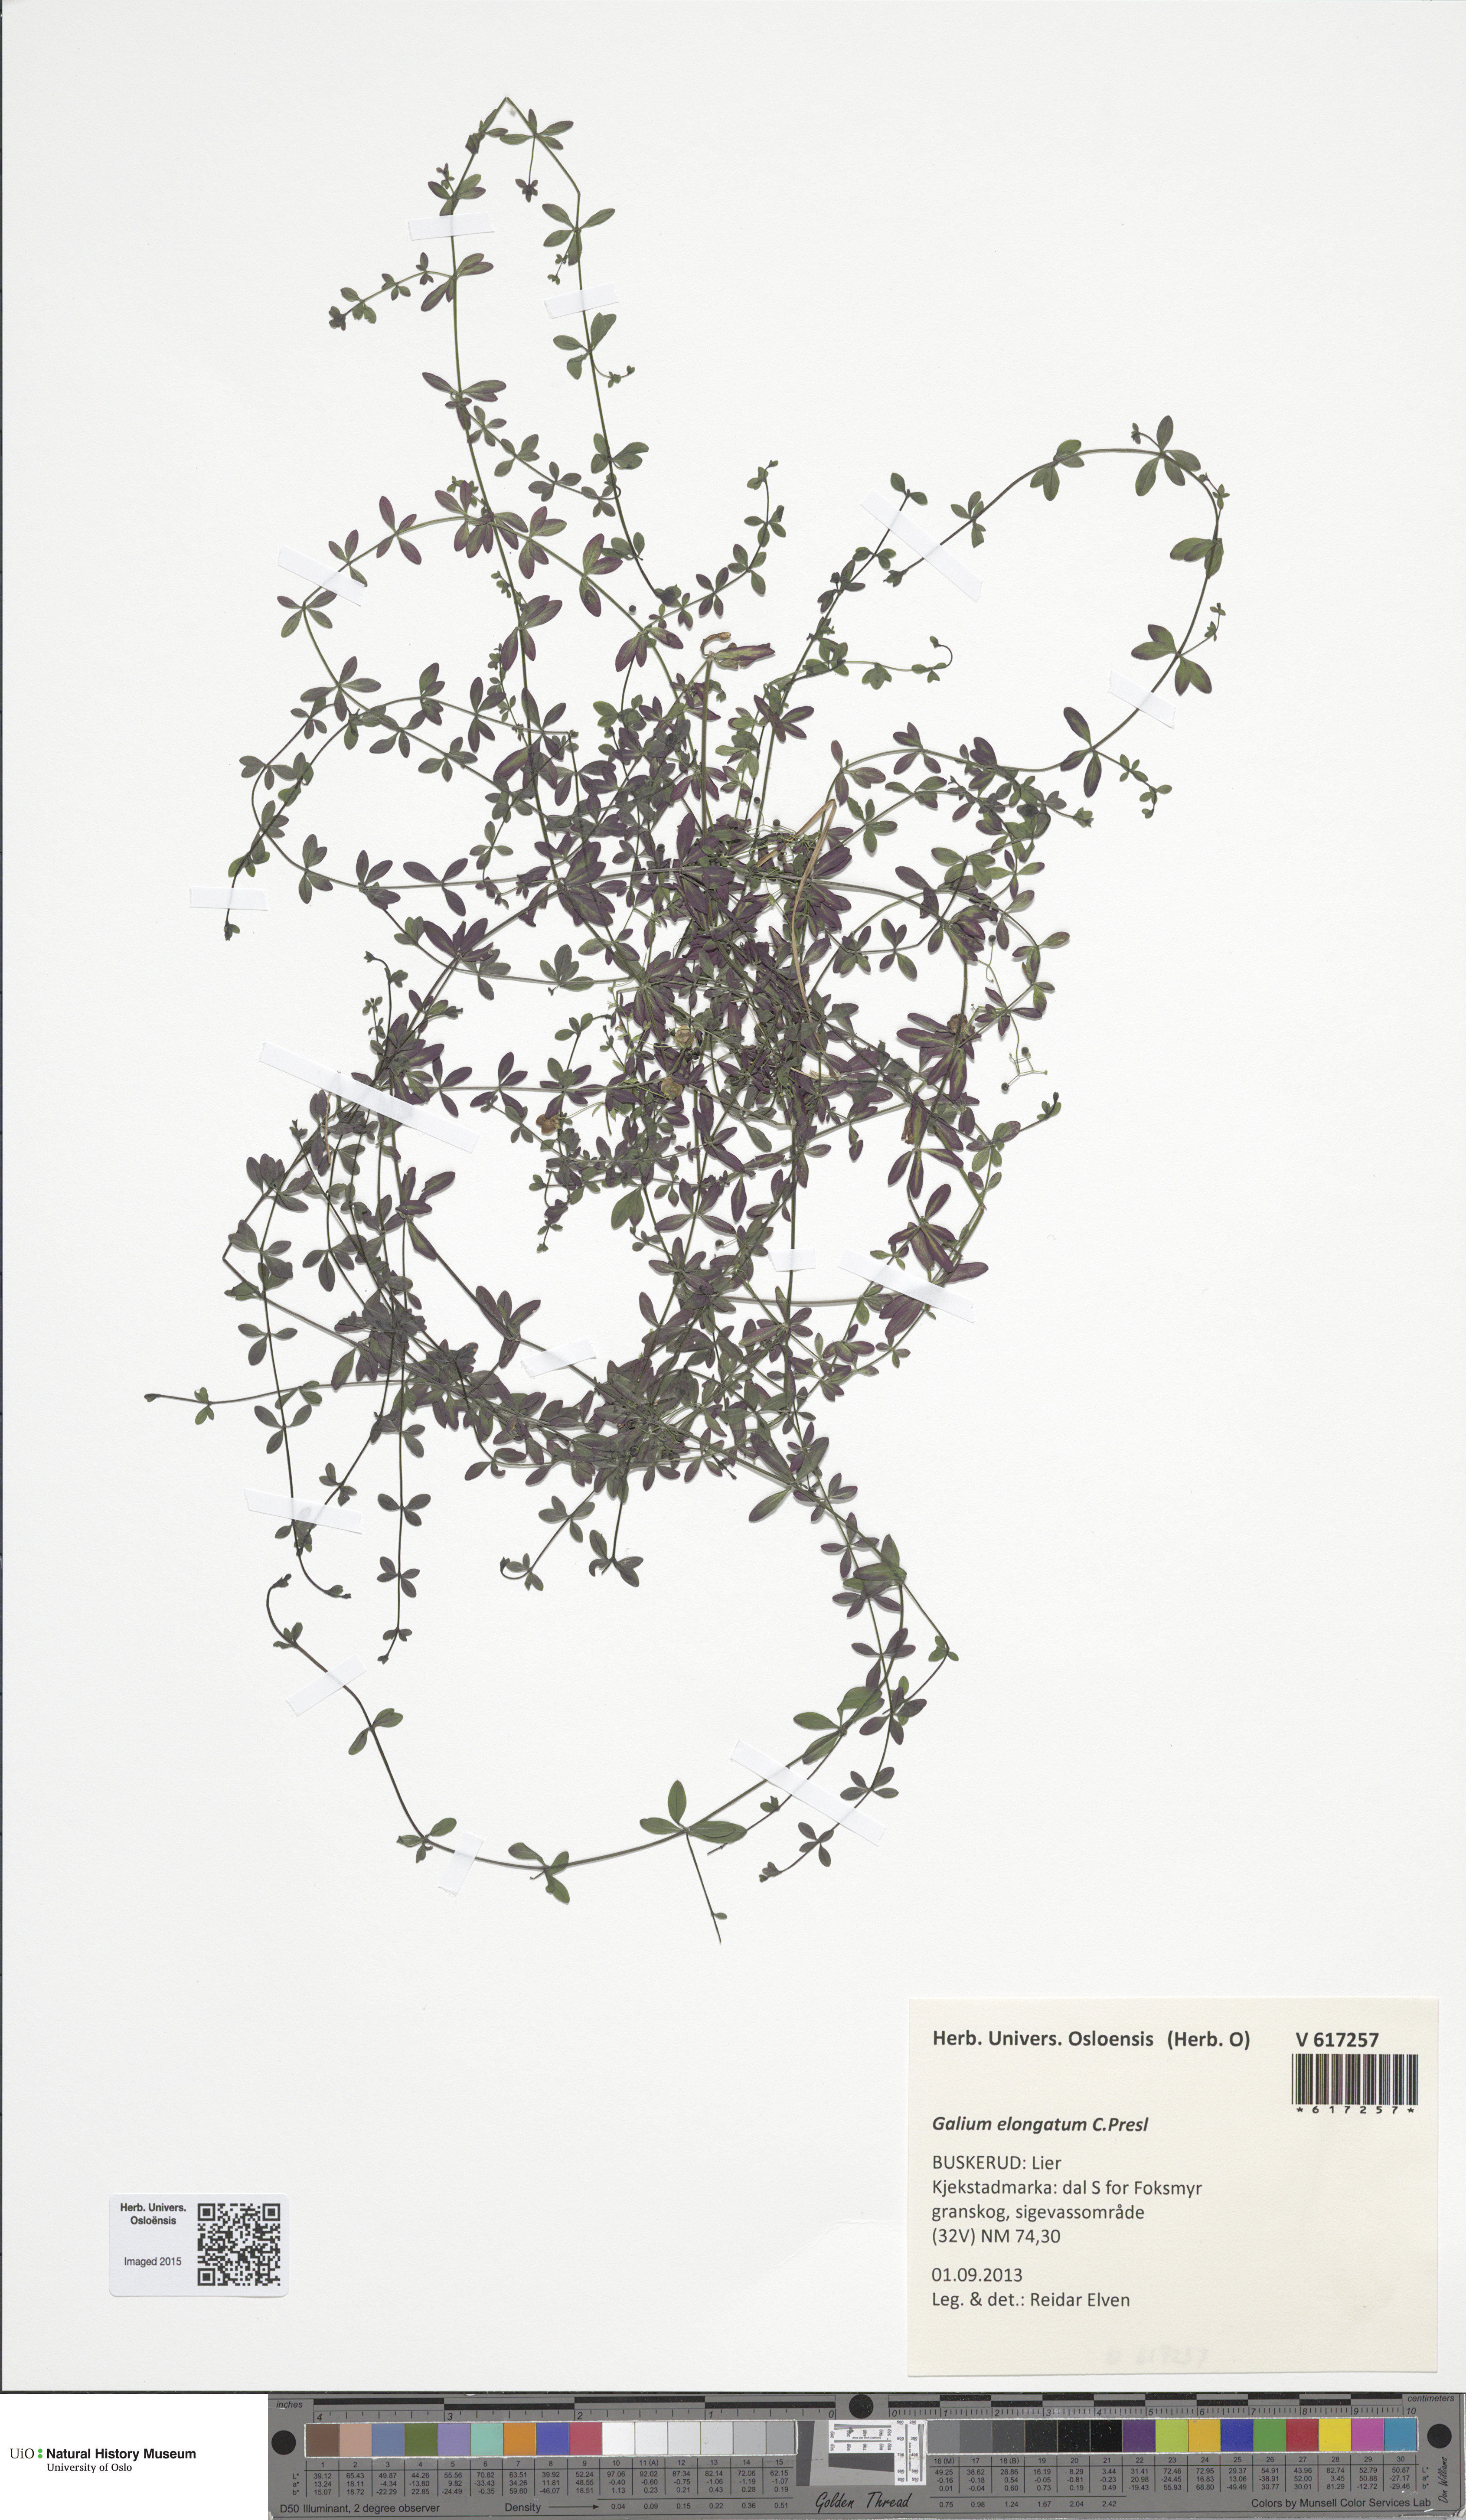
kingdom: Plantae
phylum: Tracheophyta
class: Magnoliopsida
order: Gentianales
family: Rubiaceae
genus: Galium
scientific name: Galium elongatum
